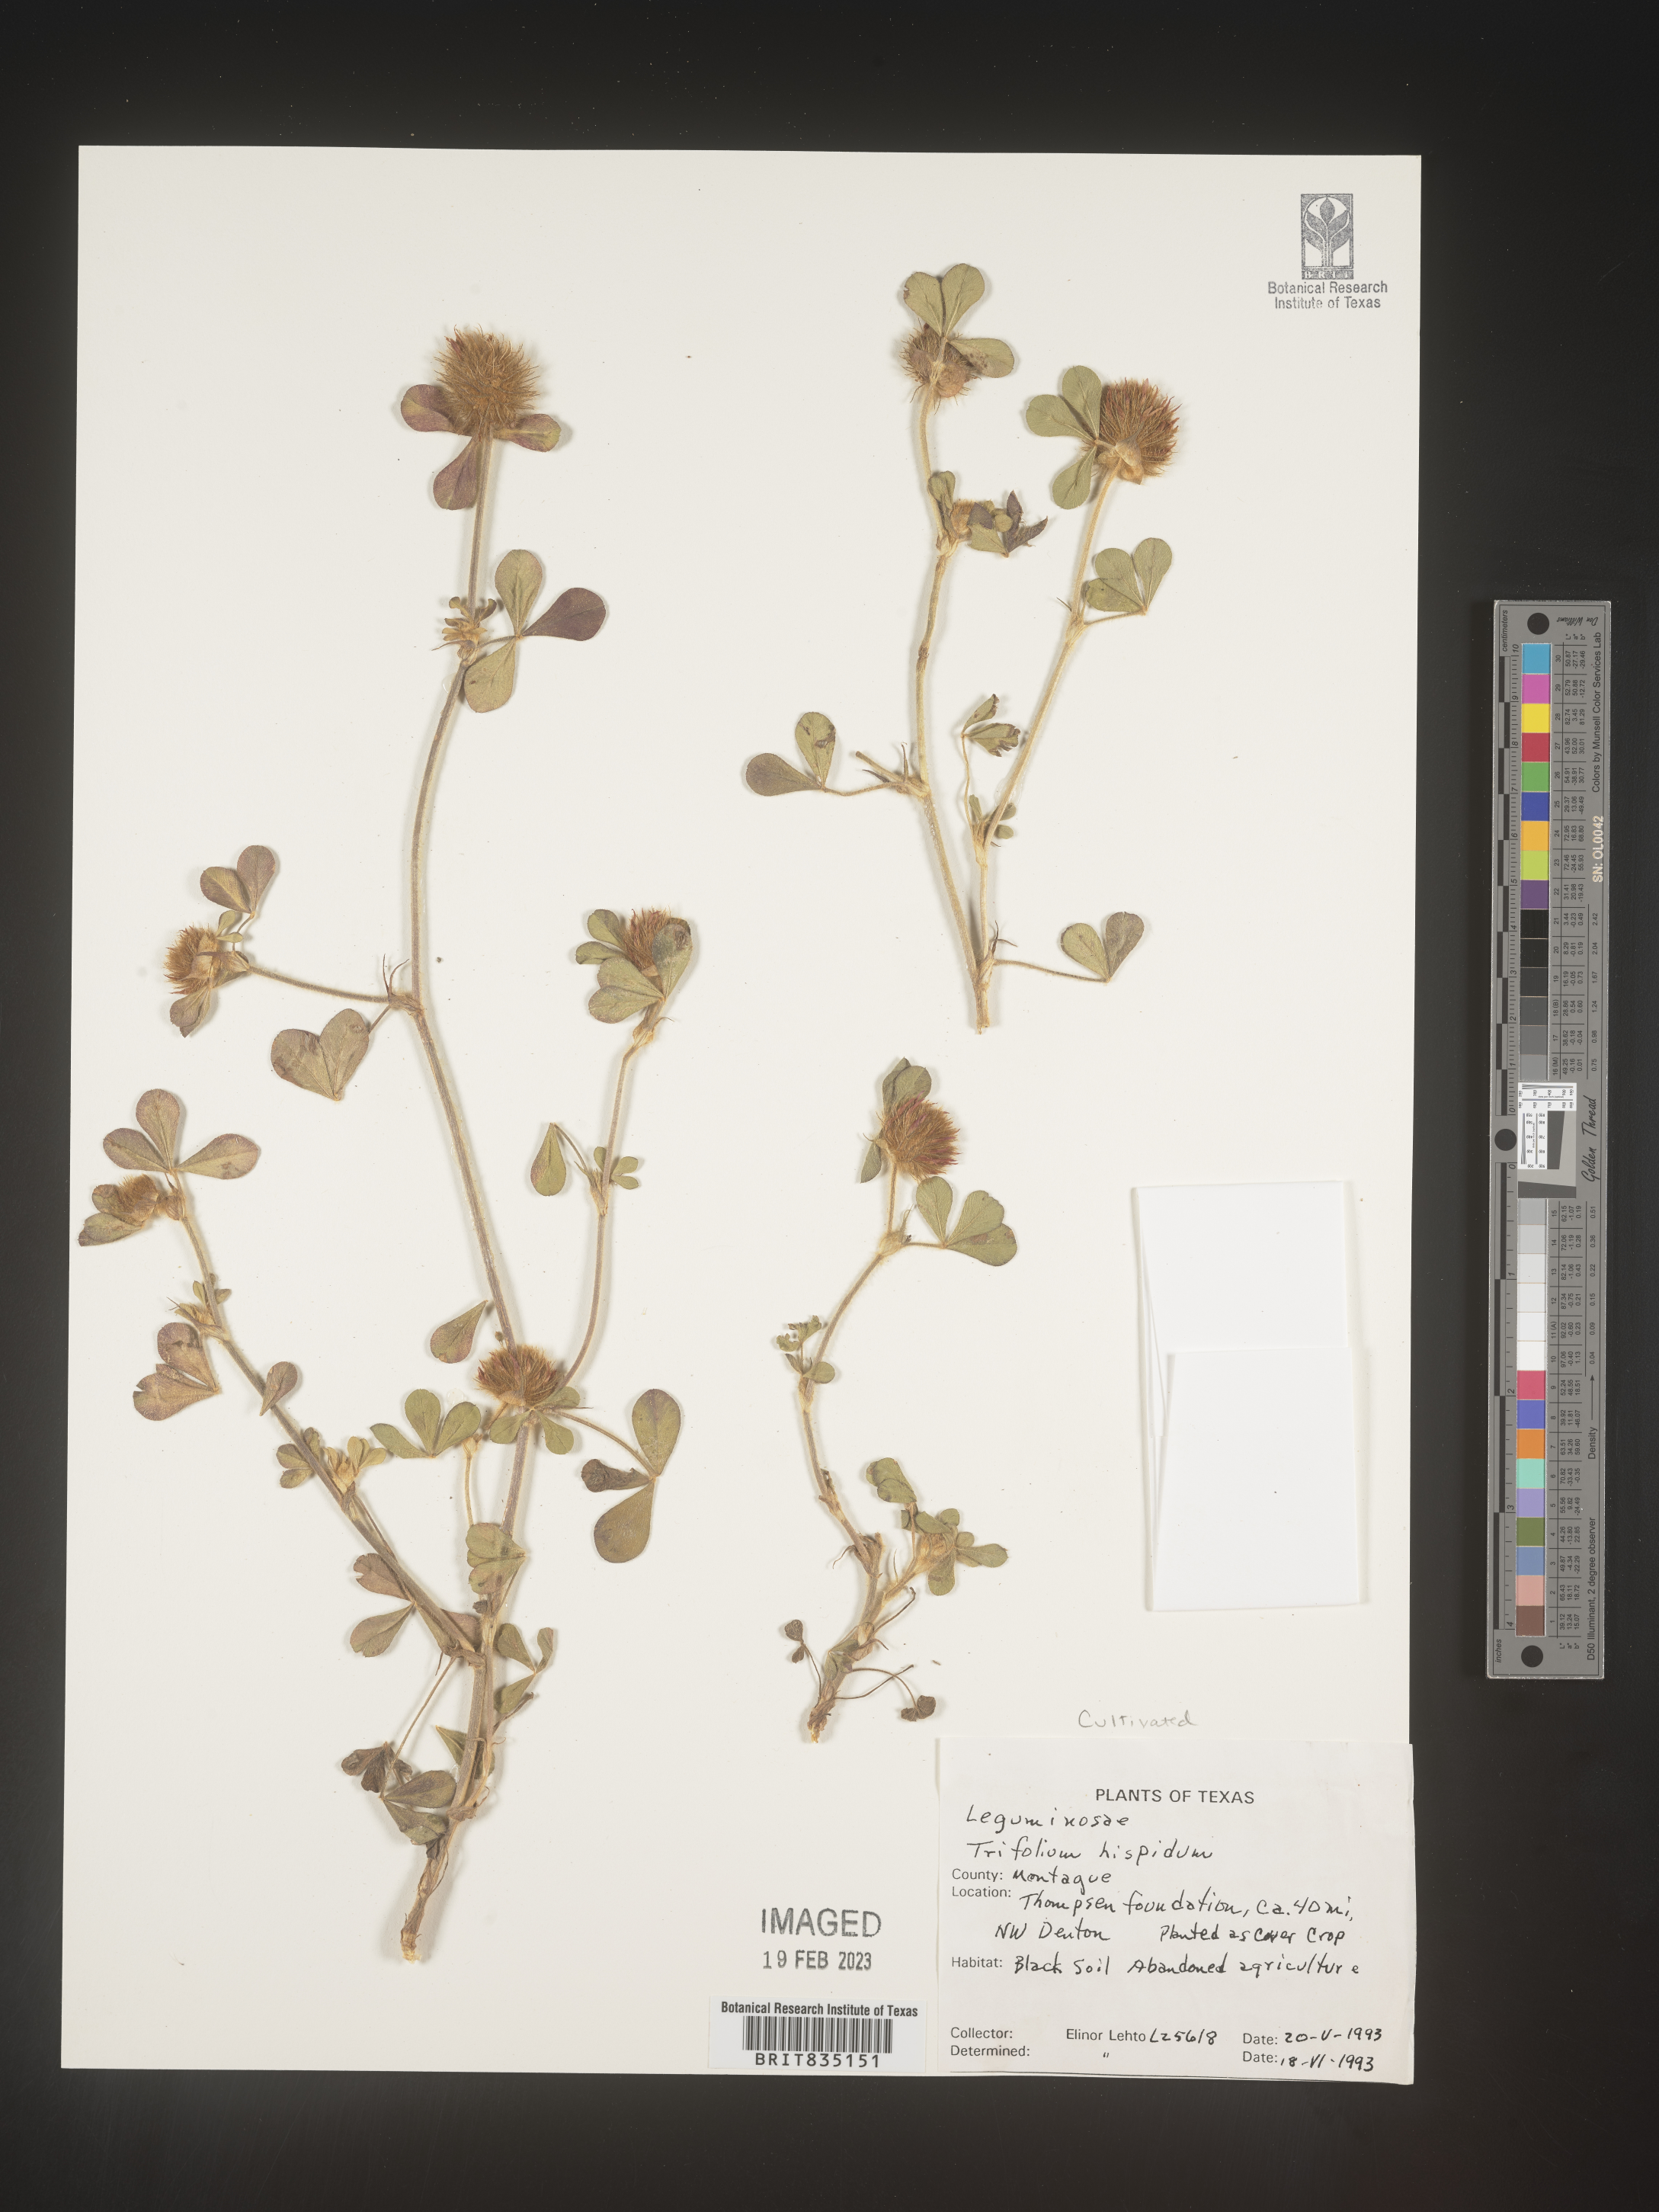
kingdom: Plantae
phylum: Tracheophyta
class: Magnoliopsida
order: Fabales
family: Fabaceae
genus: Trigonella
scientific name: Trigonella
